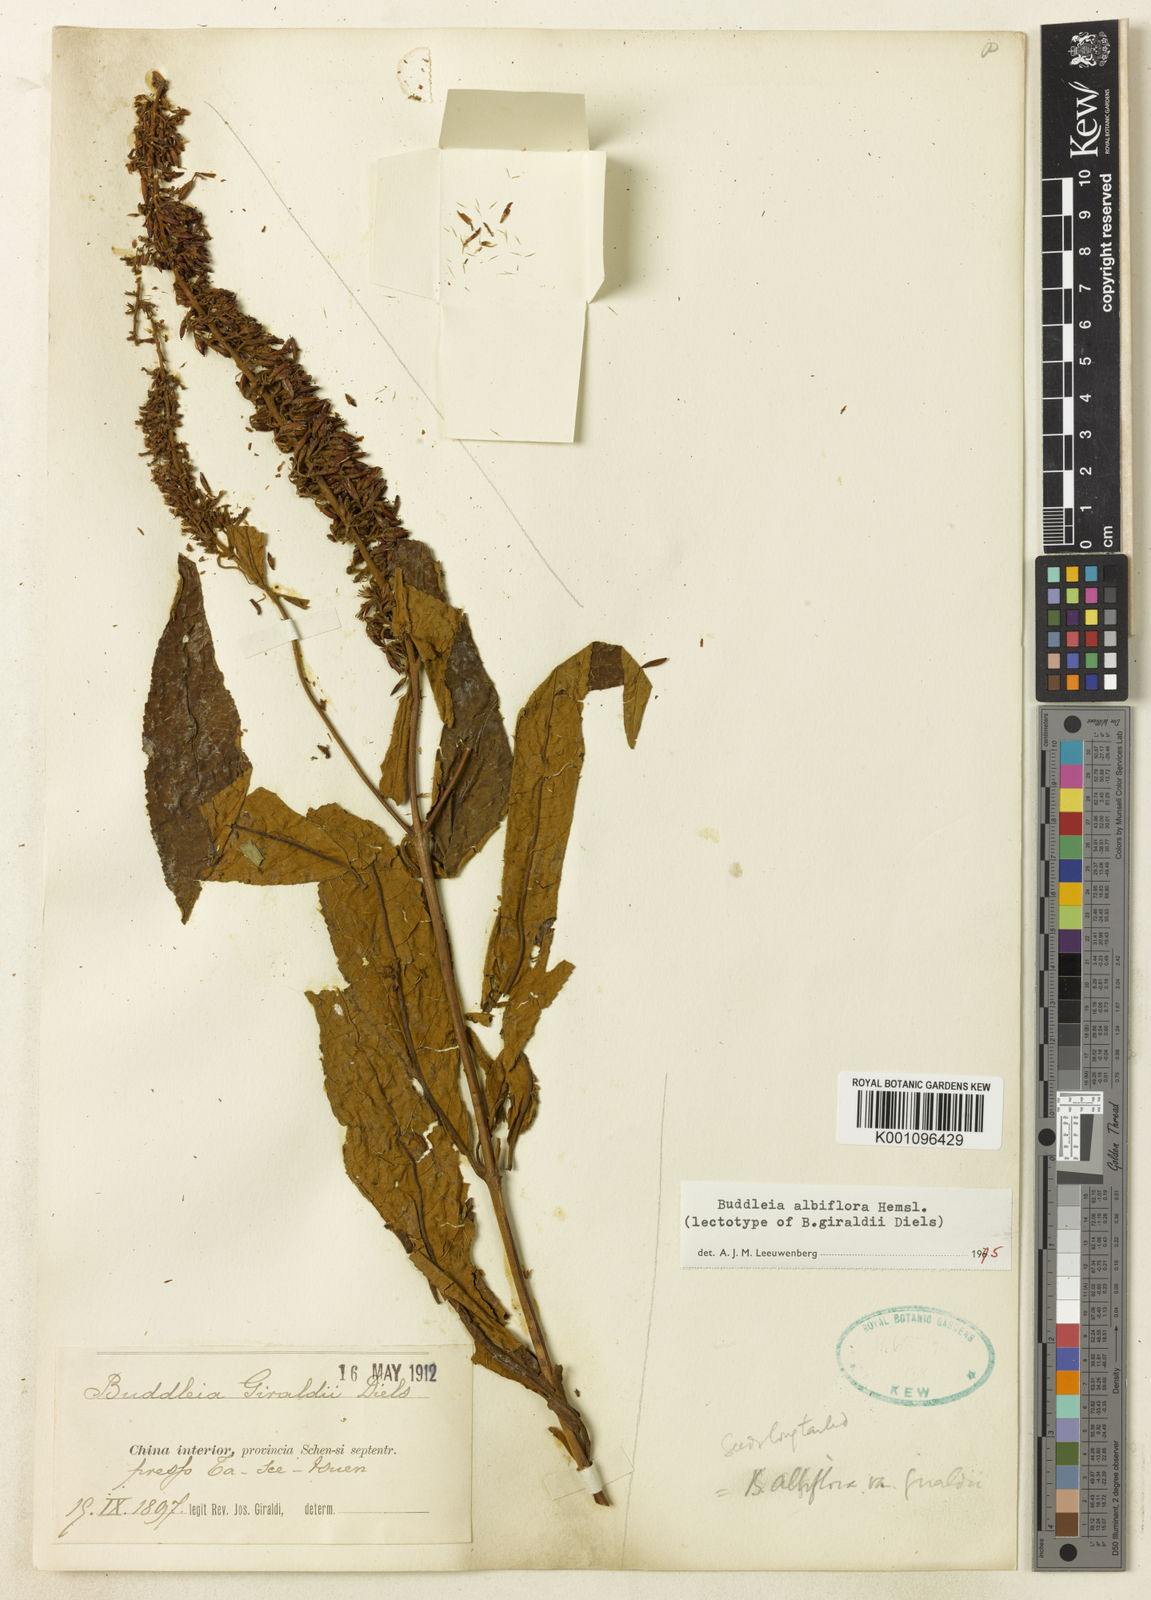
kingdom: Plantae
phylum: Tracheophyta
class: Magnoliopsida
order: Lamiales
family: Scrophulariaceae
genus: Buddleja
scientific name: Buddleja albiflora
